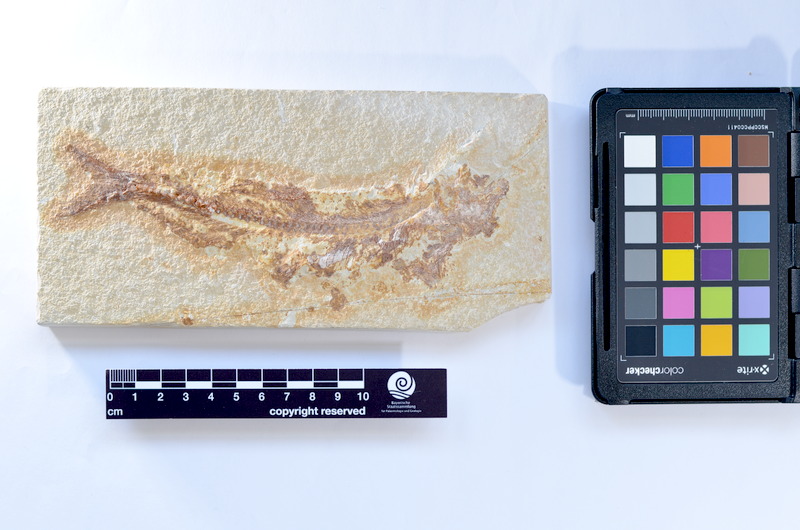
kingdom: Animalia
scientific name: Animalia
